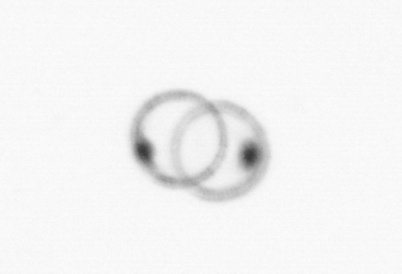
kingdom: Chromista
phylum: Myzozoa
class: Dinophyceae
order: Noctilucales
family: Noctilucaceae
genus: Noctiluca
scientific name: Noctiluca scintillans
